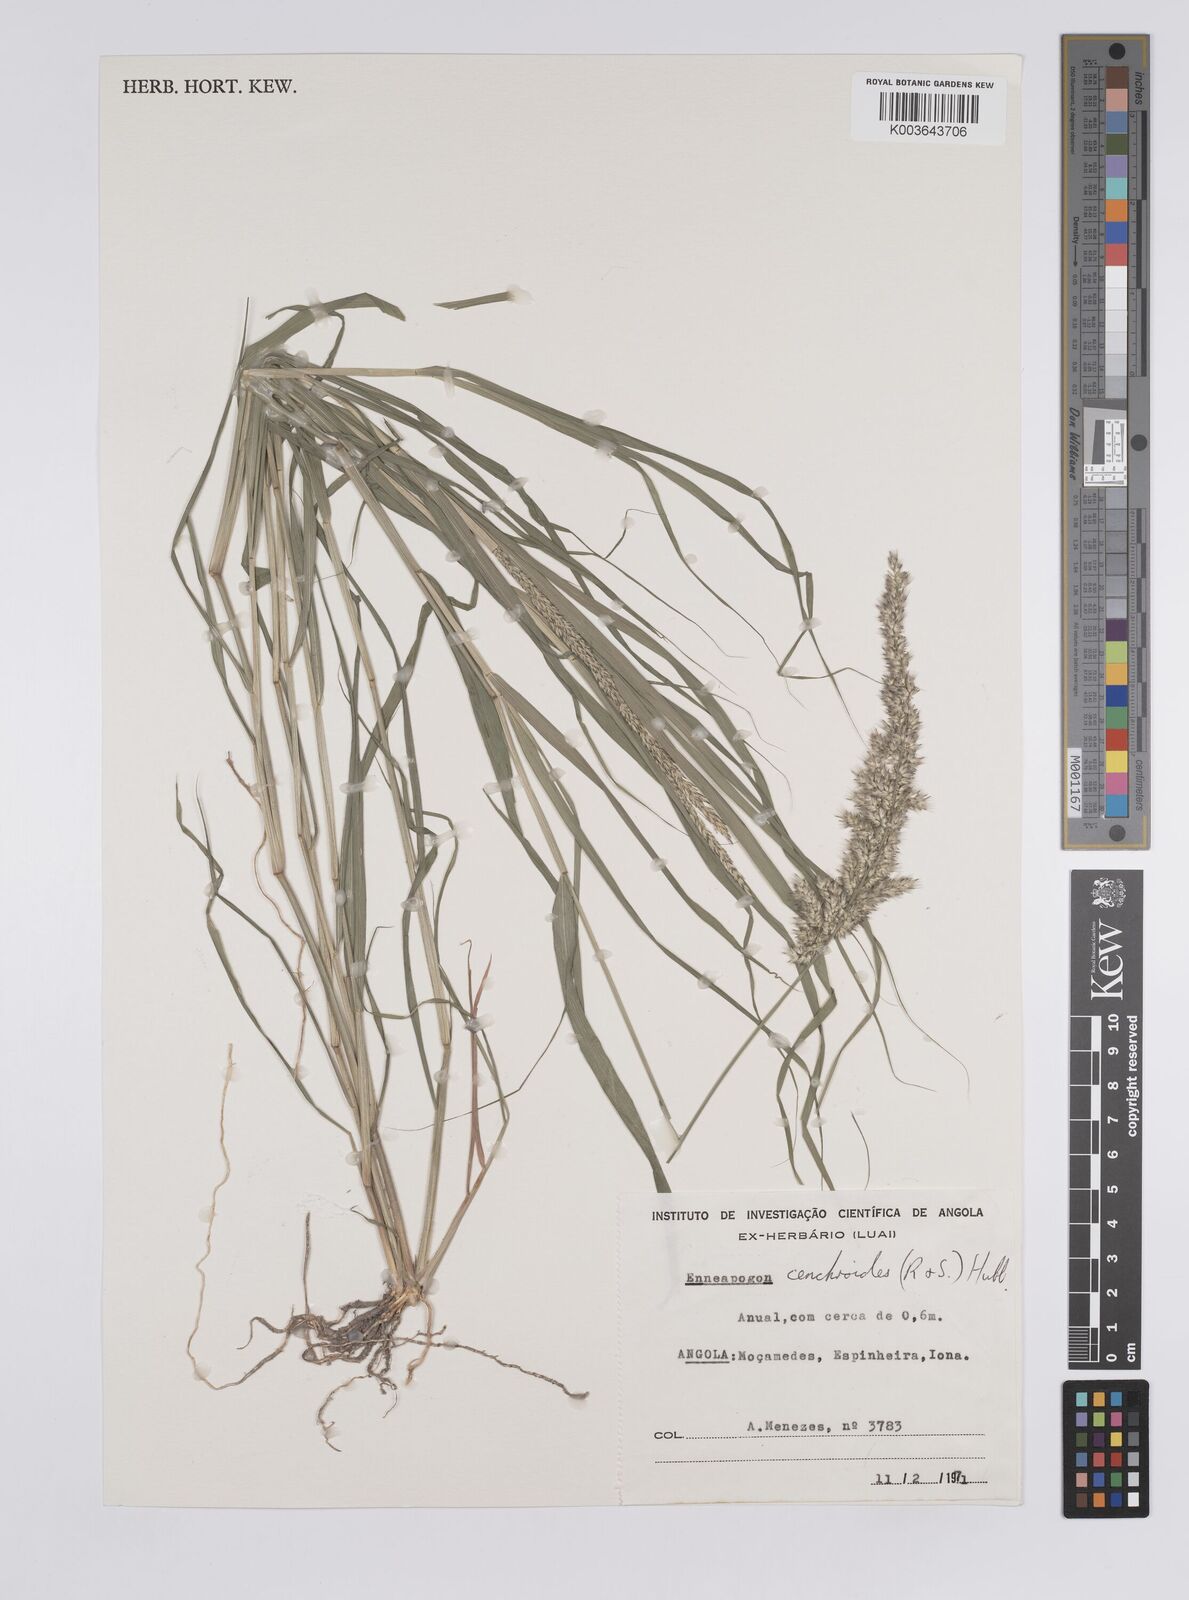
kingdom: Plantae
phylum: Tracheophyta
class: Liliopsida
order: Poales
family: Poaceae
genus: Enneapogon
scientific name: Enneapogon cenchroides
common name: Soft feather pappusgrass
